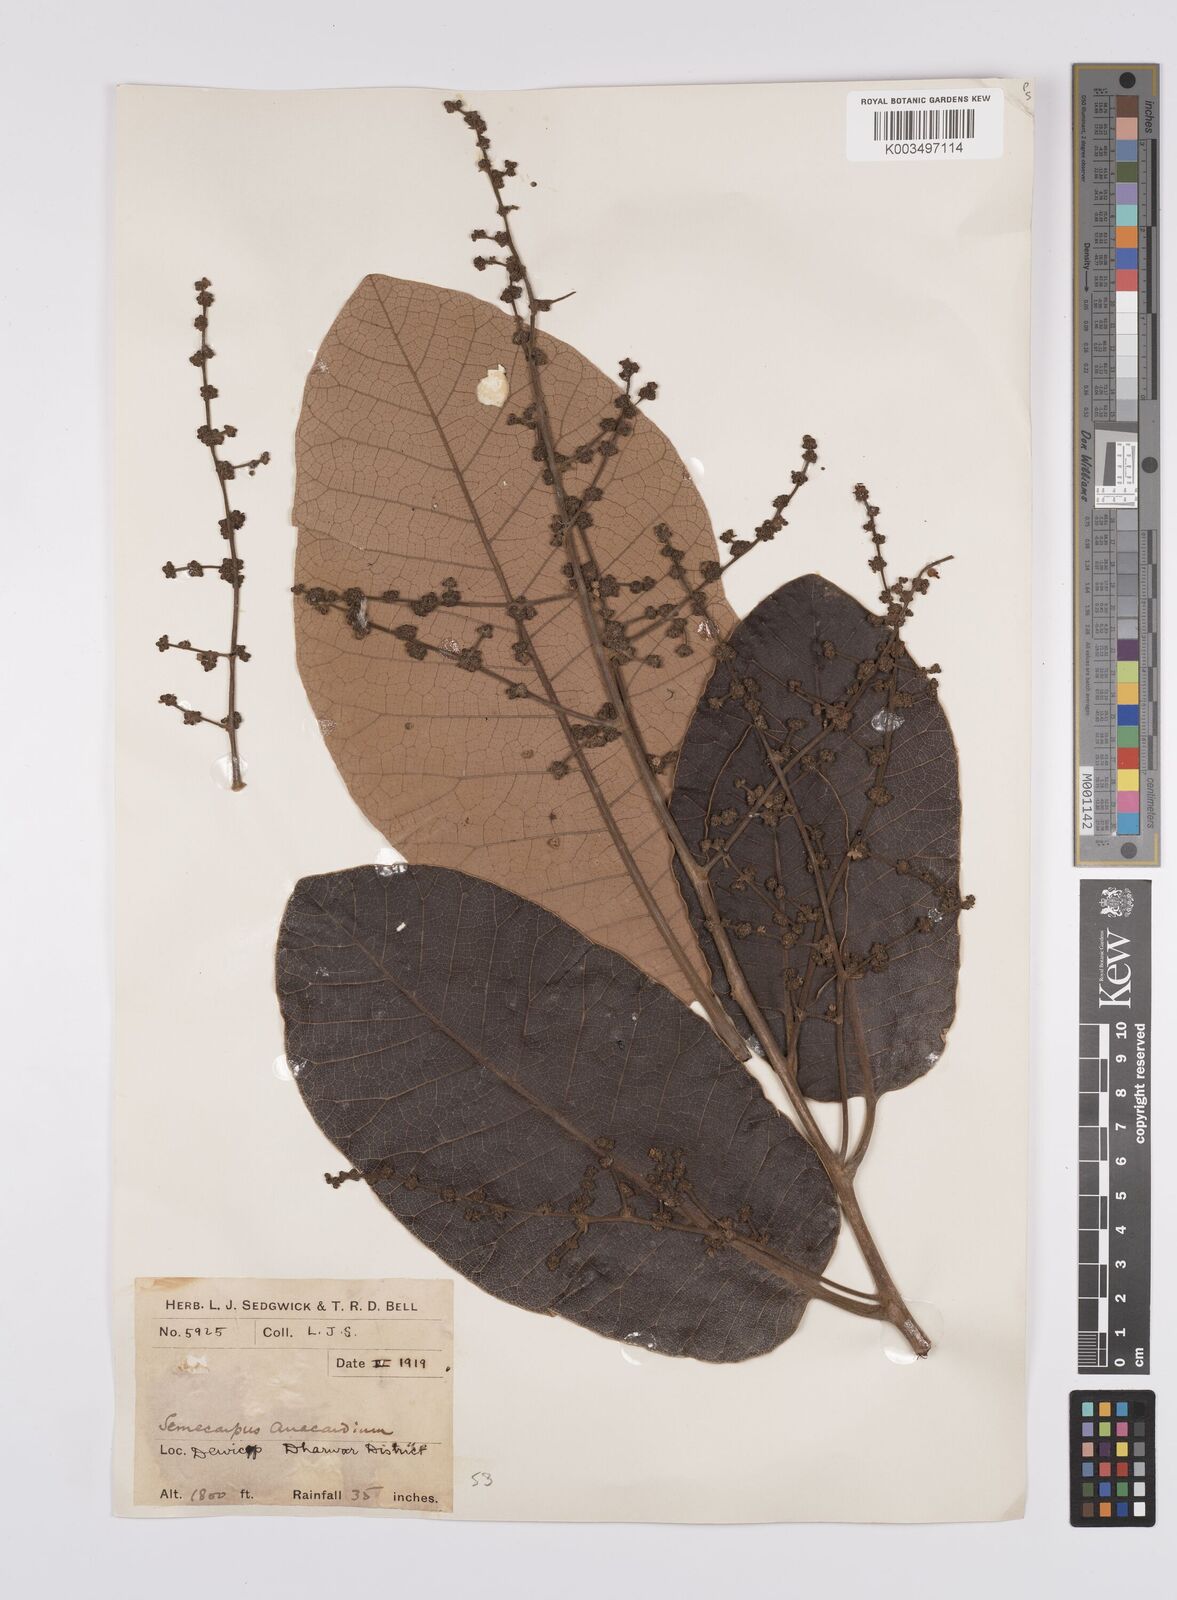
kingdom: Plantae
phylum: Tracheophyta
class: Magnoliopsida
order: Sapindales
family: Anacardiaceae
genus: Semecarpus
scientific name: Semecarpus anacardium
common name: Marking nut-tree
